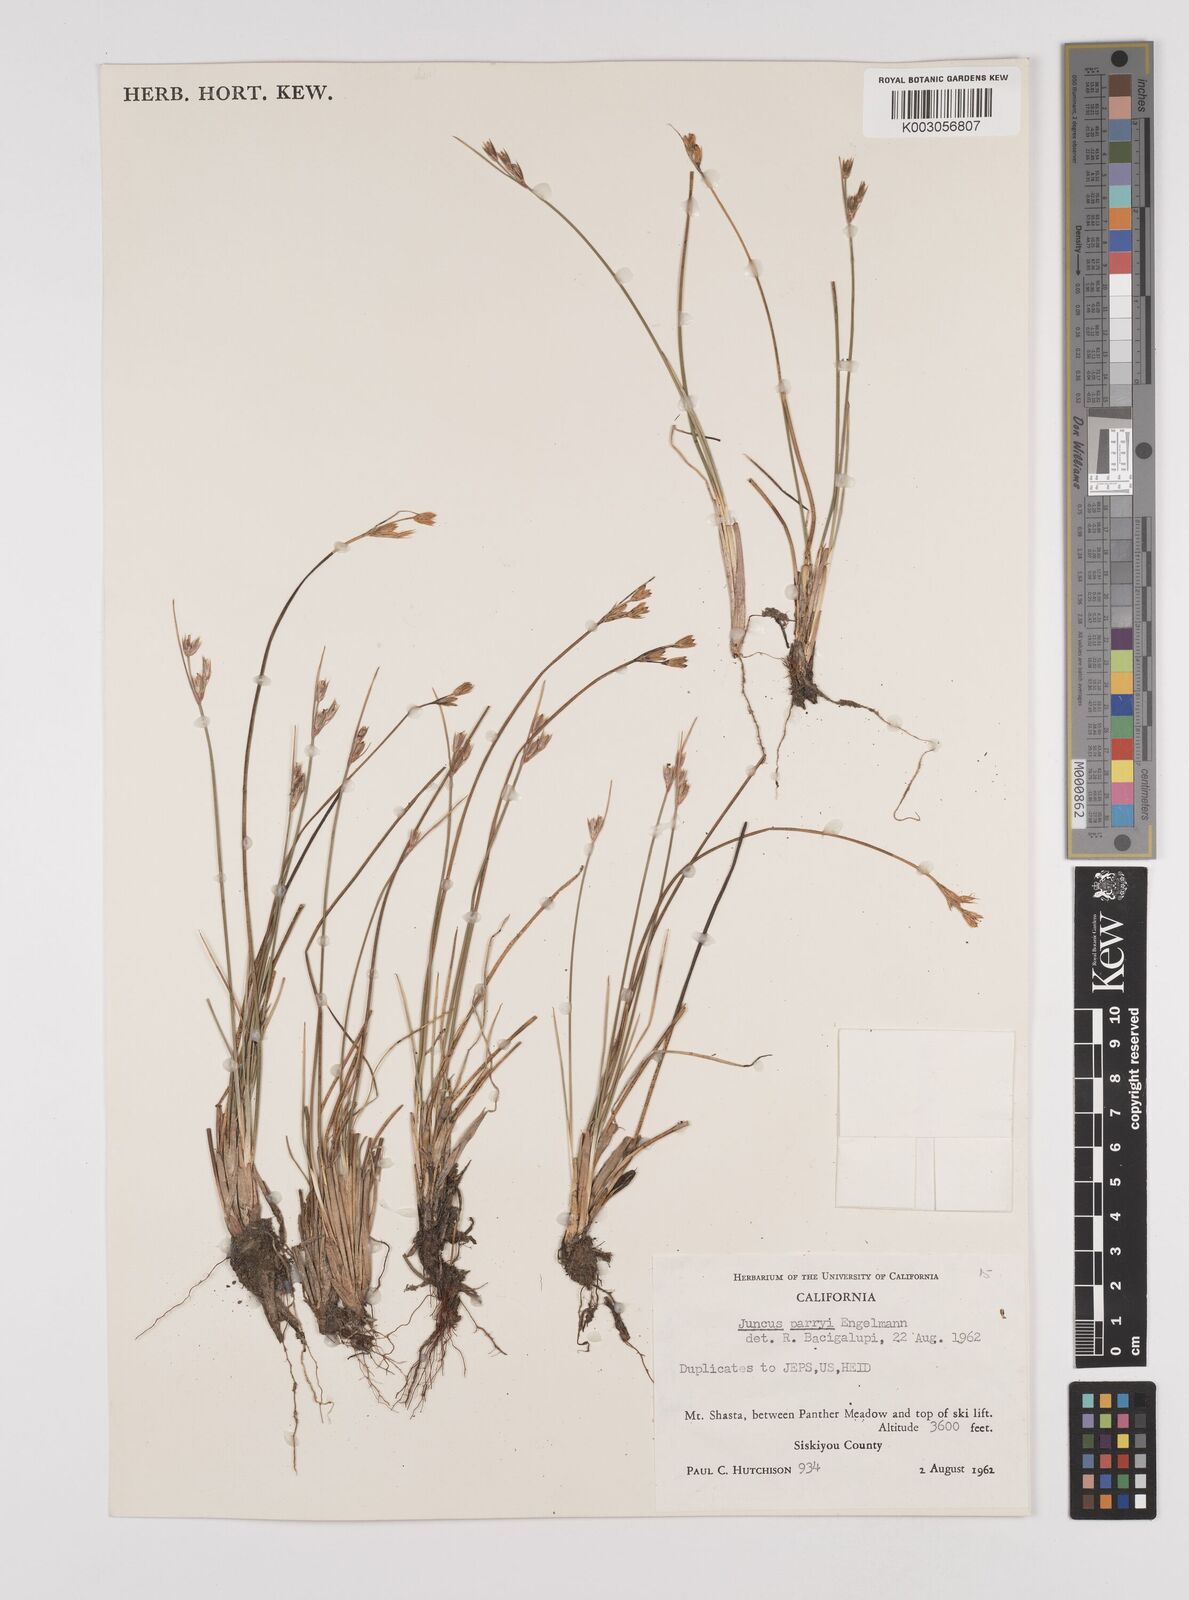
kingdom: Plantae
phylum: Tracheophyta
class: Liliopsida
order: Poales
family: Juncaceae
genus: Juncus
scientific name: Juncus parryi
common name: Parry's rush
